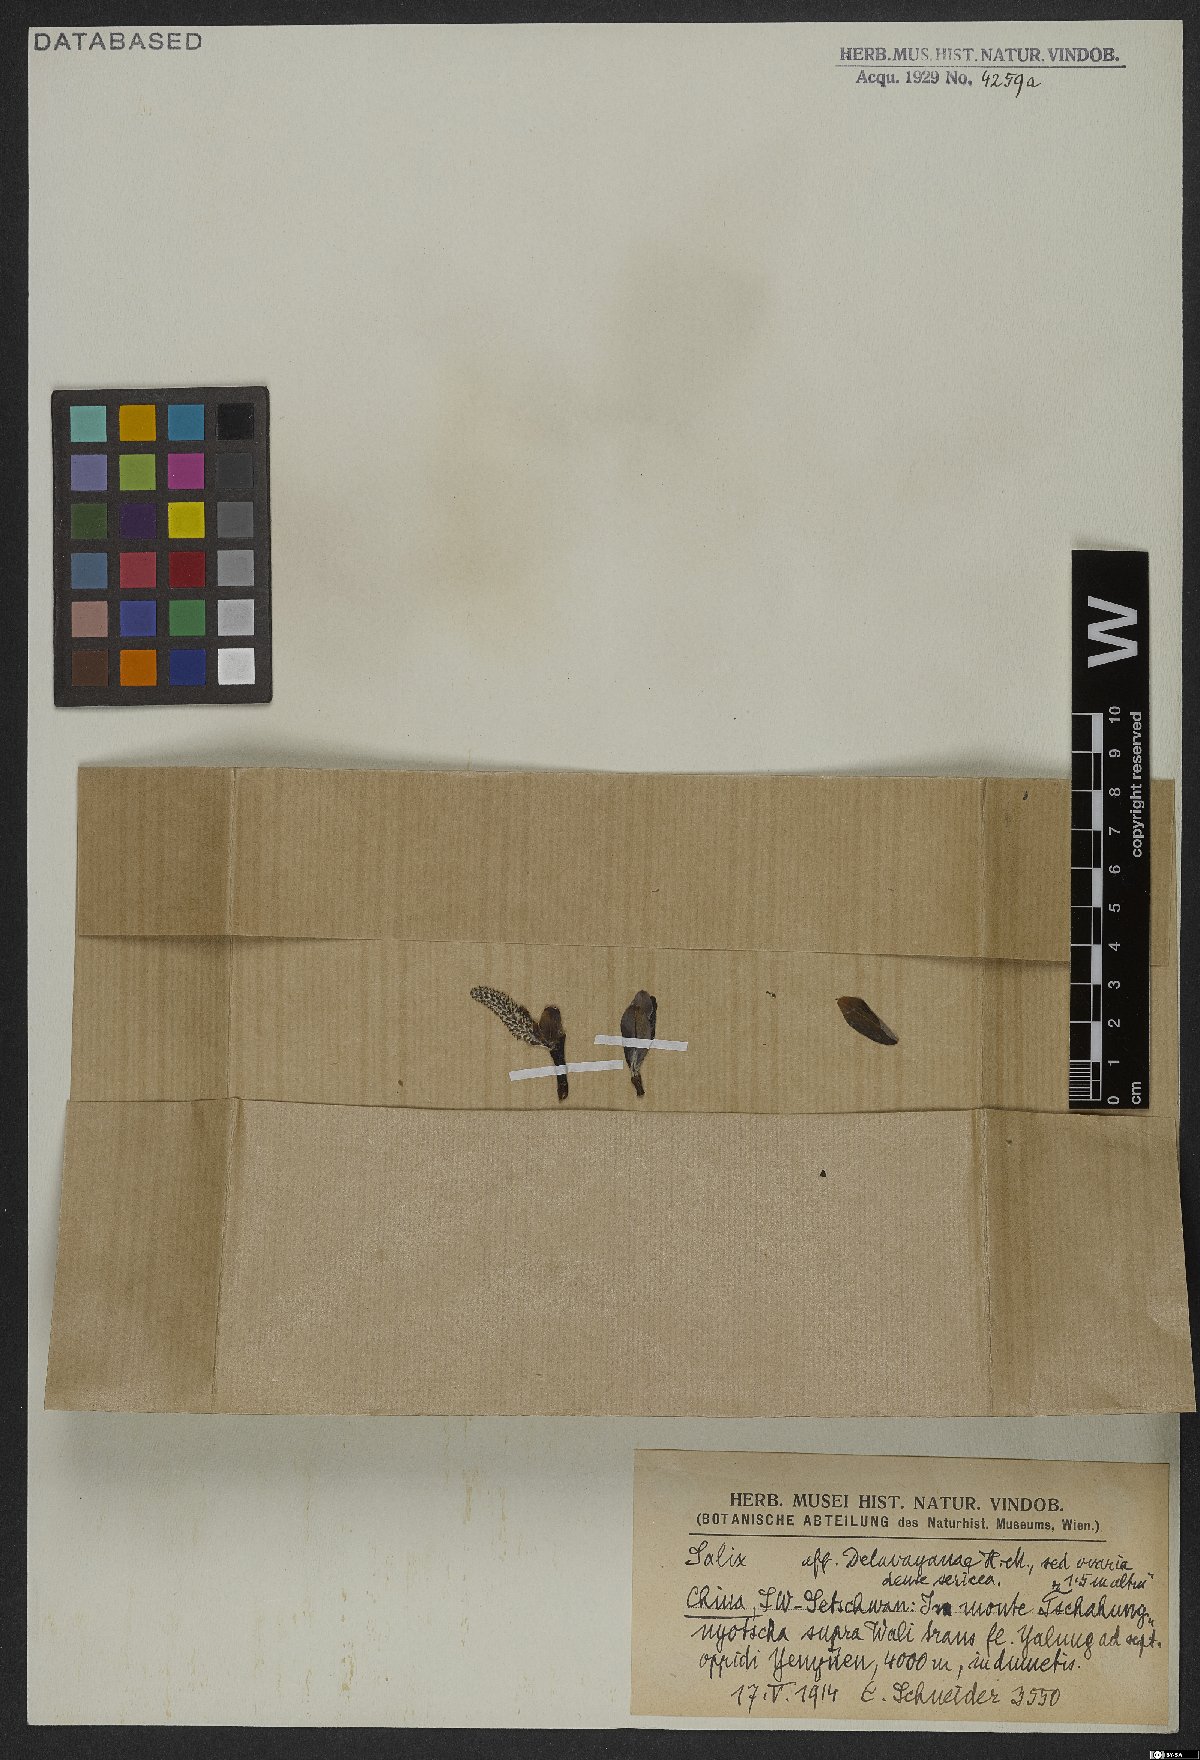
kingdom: Plantae
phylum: Tracheophyta
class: Magnoliopsida
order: Malpighiales
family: Salicaceae
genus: Salix
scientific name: Salix delavayana
